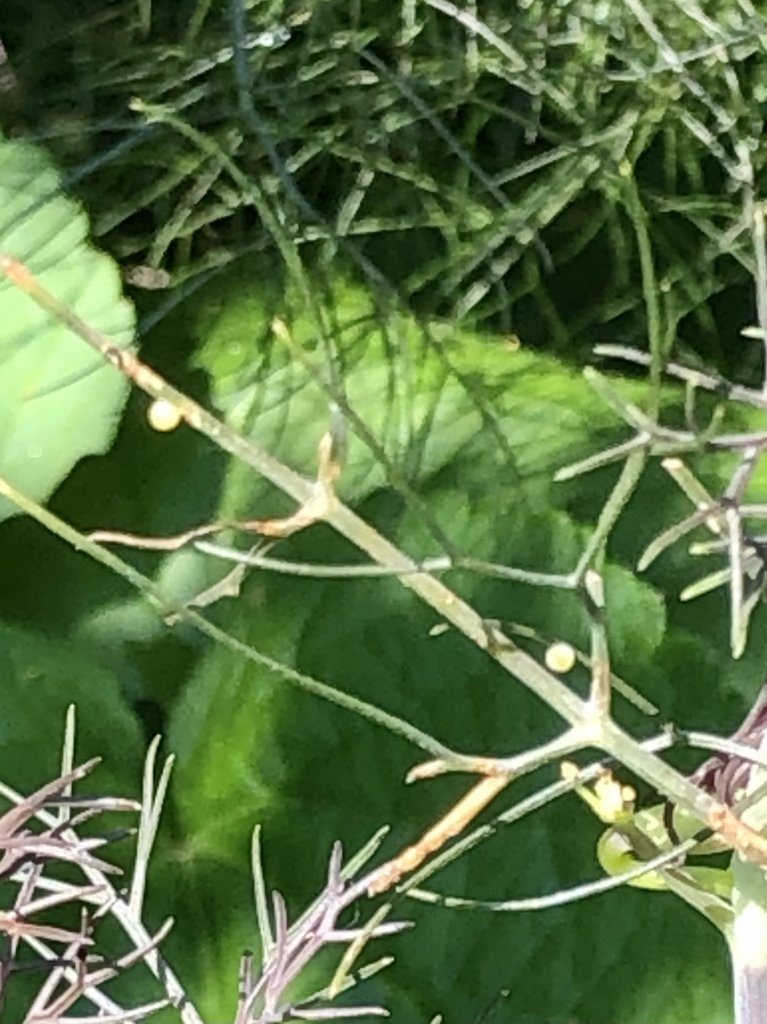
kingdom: Animalia
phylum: Arthropoda
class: Insecta
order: Lepidoptera
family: Papilionidae
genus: Papilio
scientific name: Papilio polyxenes
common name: Black Swallowtail
